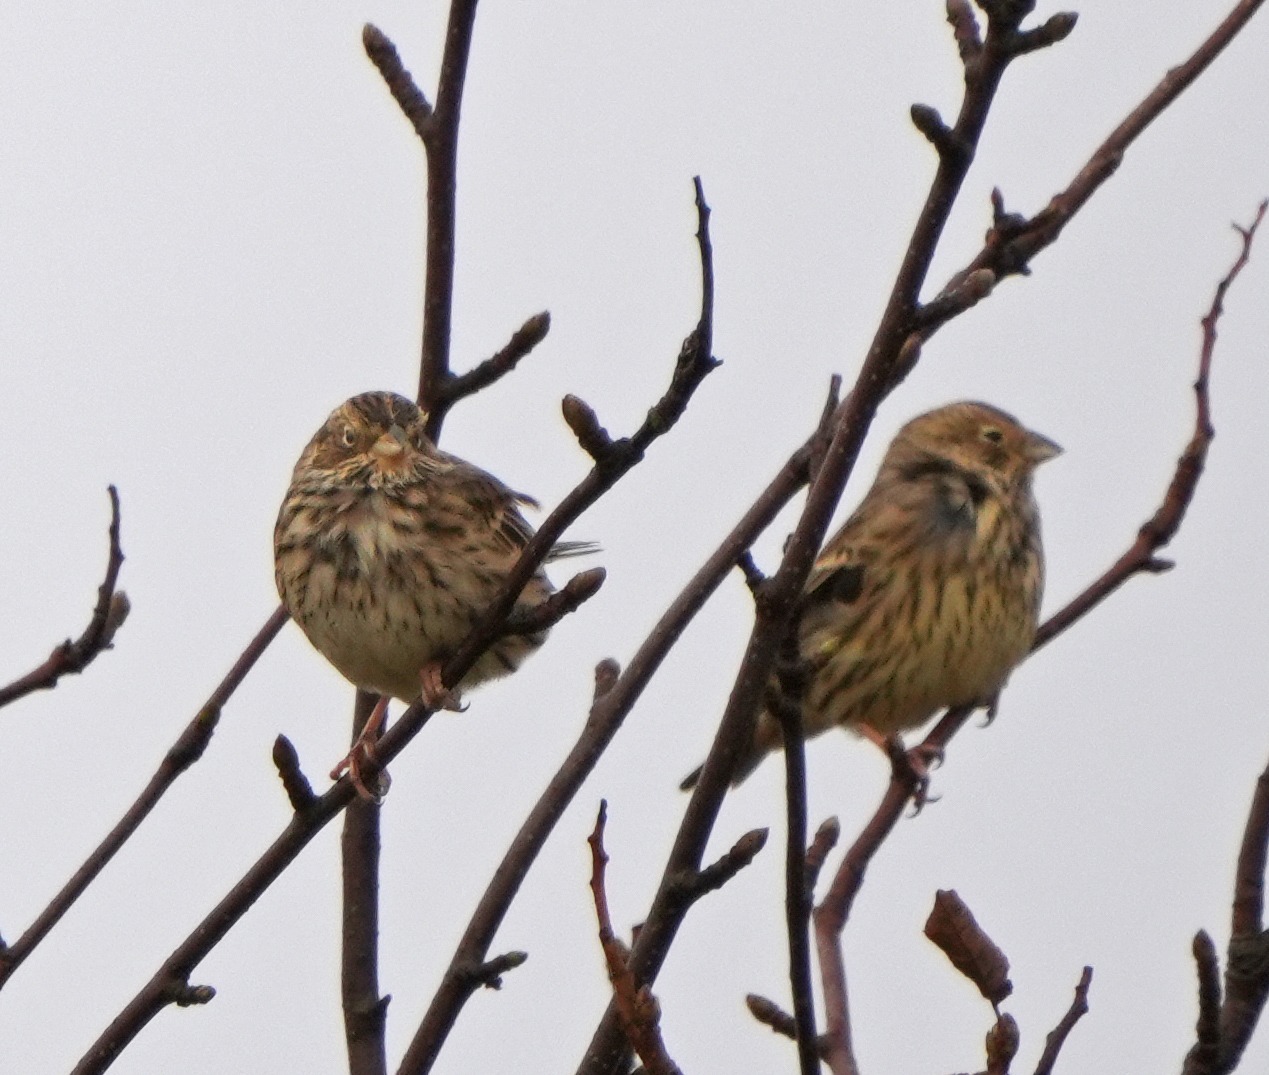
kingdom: Animalia
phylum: Chordata
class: Aves
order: Passeriformes
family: Emberizidae
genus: Emberiza
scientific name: Emberiza calandra
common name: Bomlærke
